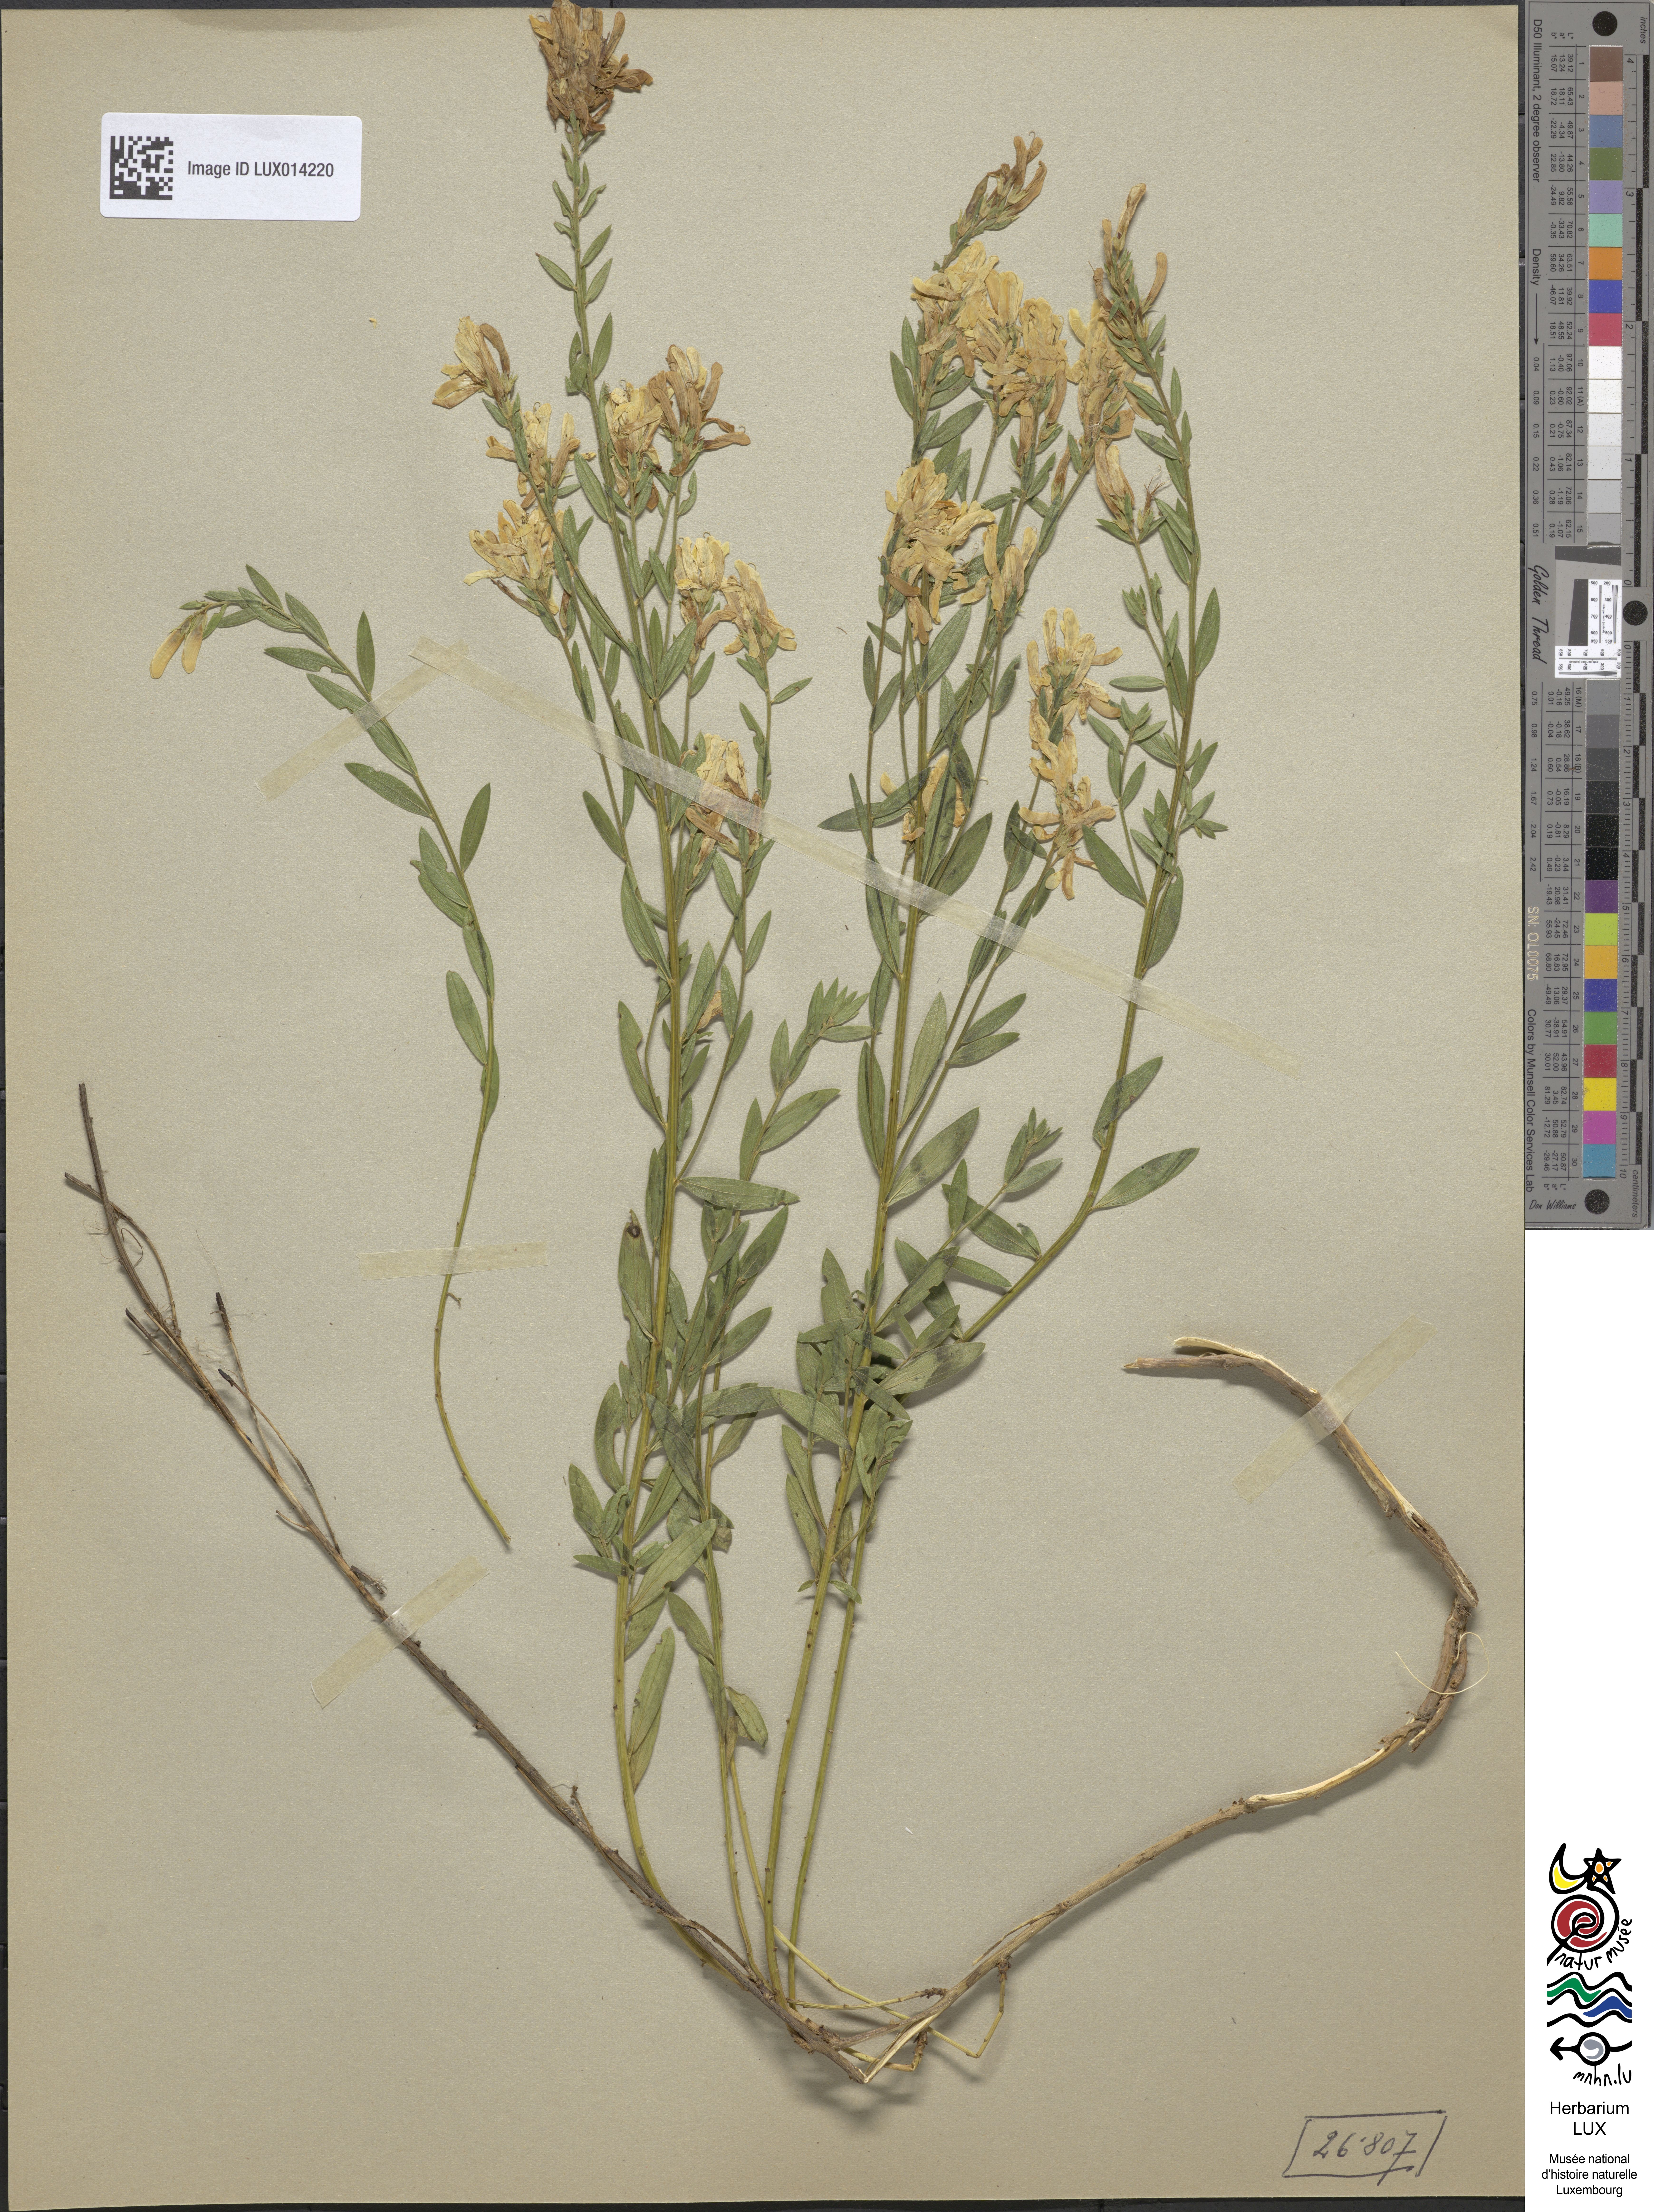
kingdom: Plantae
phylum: Tracheophyta
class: Magnoliopsida
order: Fabales
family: Fabaceae
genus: Genista
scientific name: Genista tinctoria
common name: Dyer's greenweed
